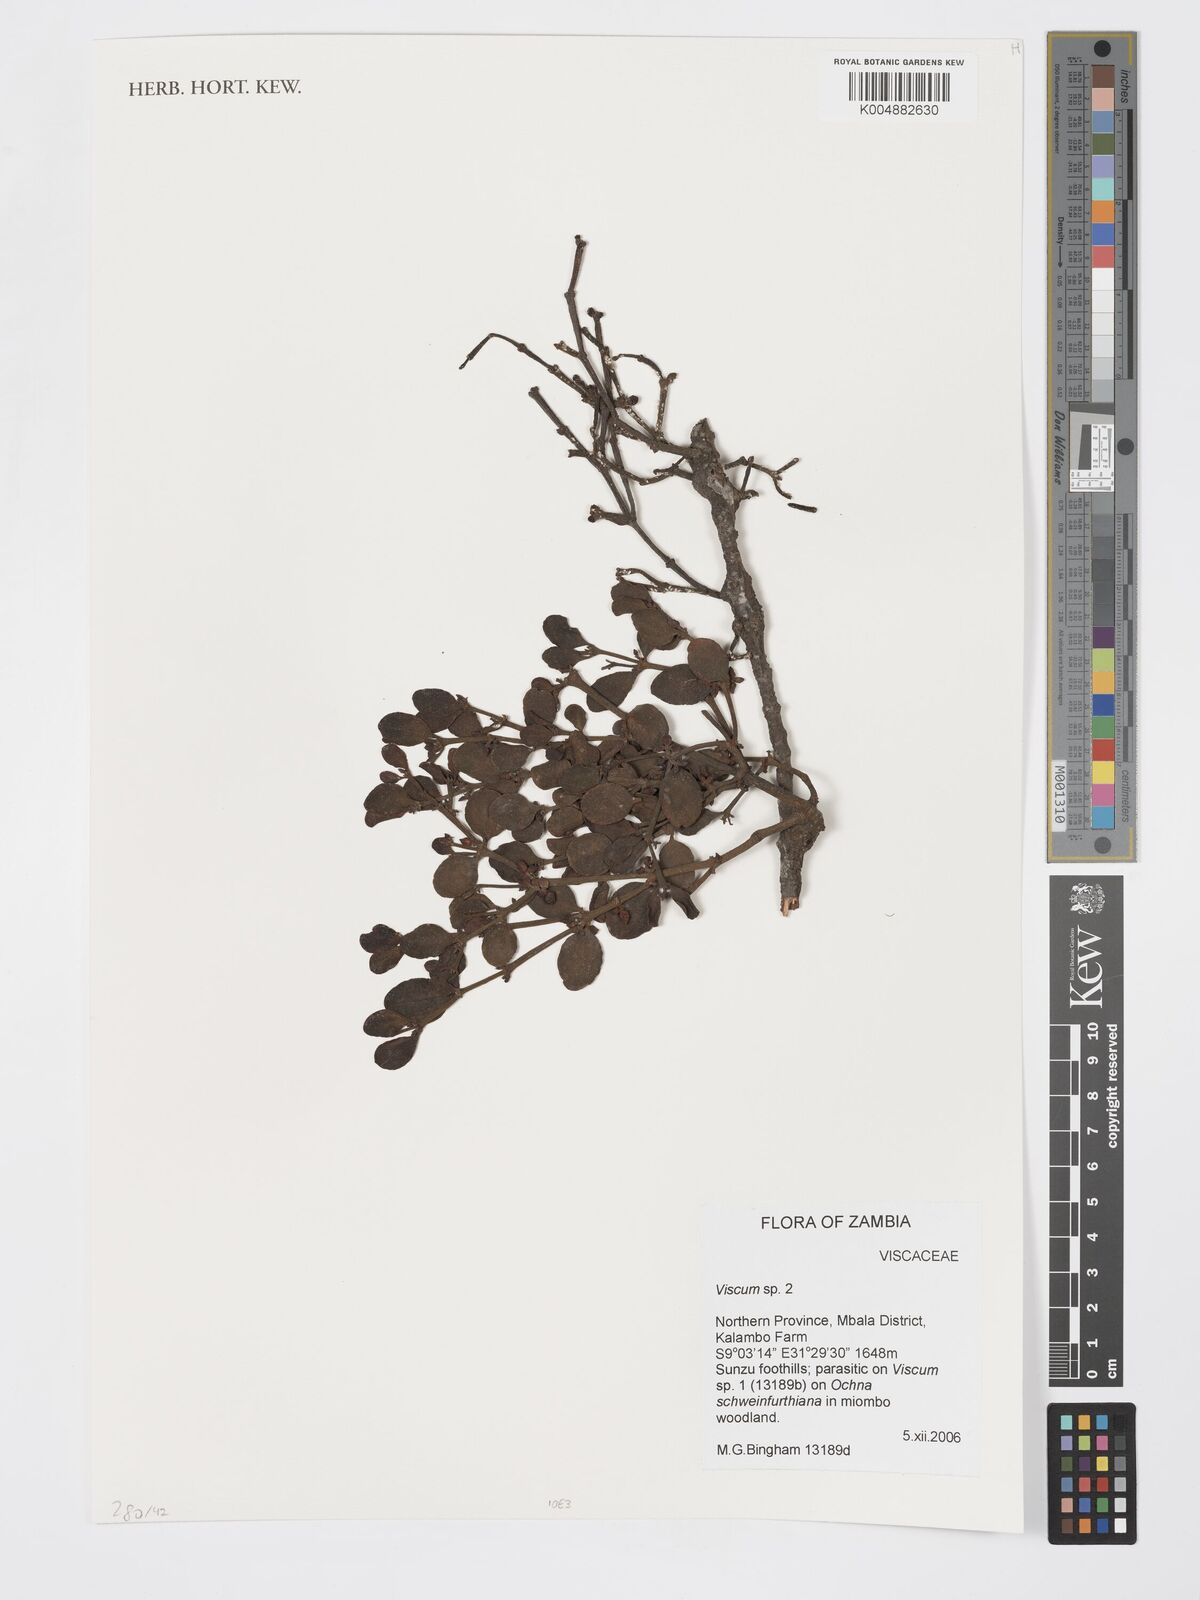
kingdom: Plantae
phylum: Tracheophyta
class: Magnoliopsida
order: Santalales
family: Viscaceae
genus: Viscum
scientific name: Viscum
